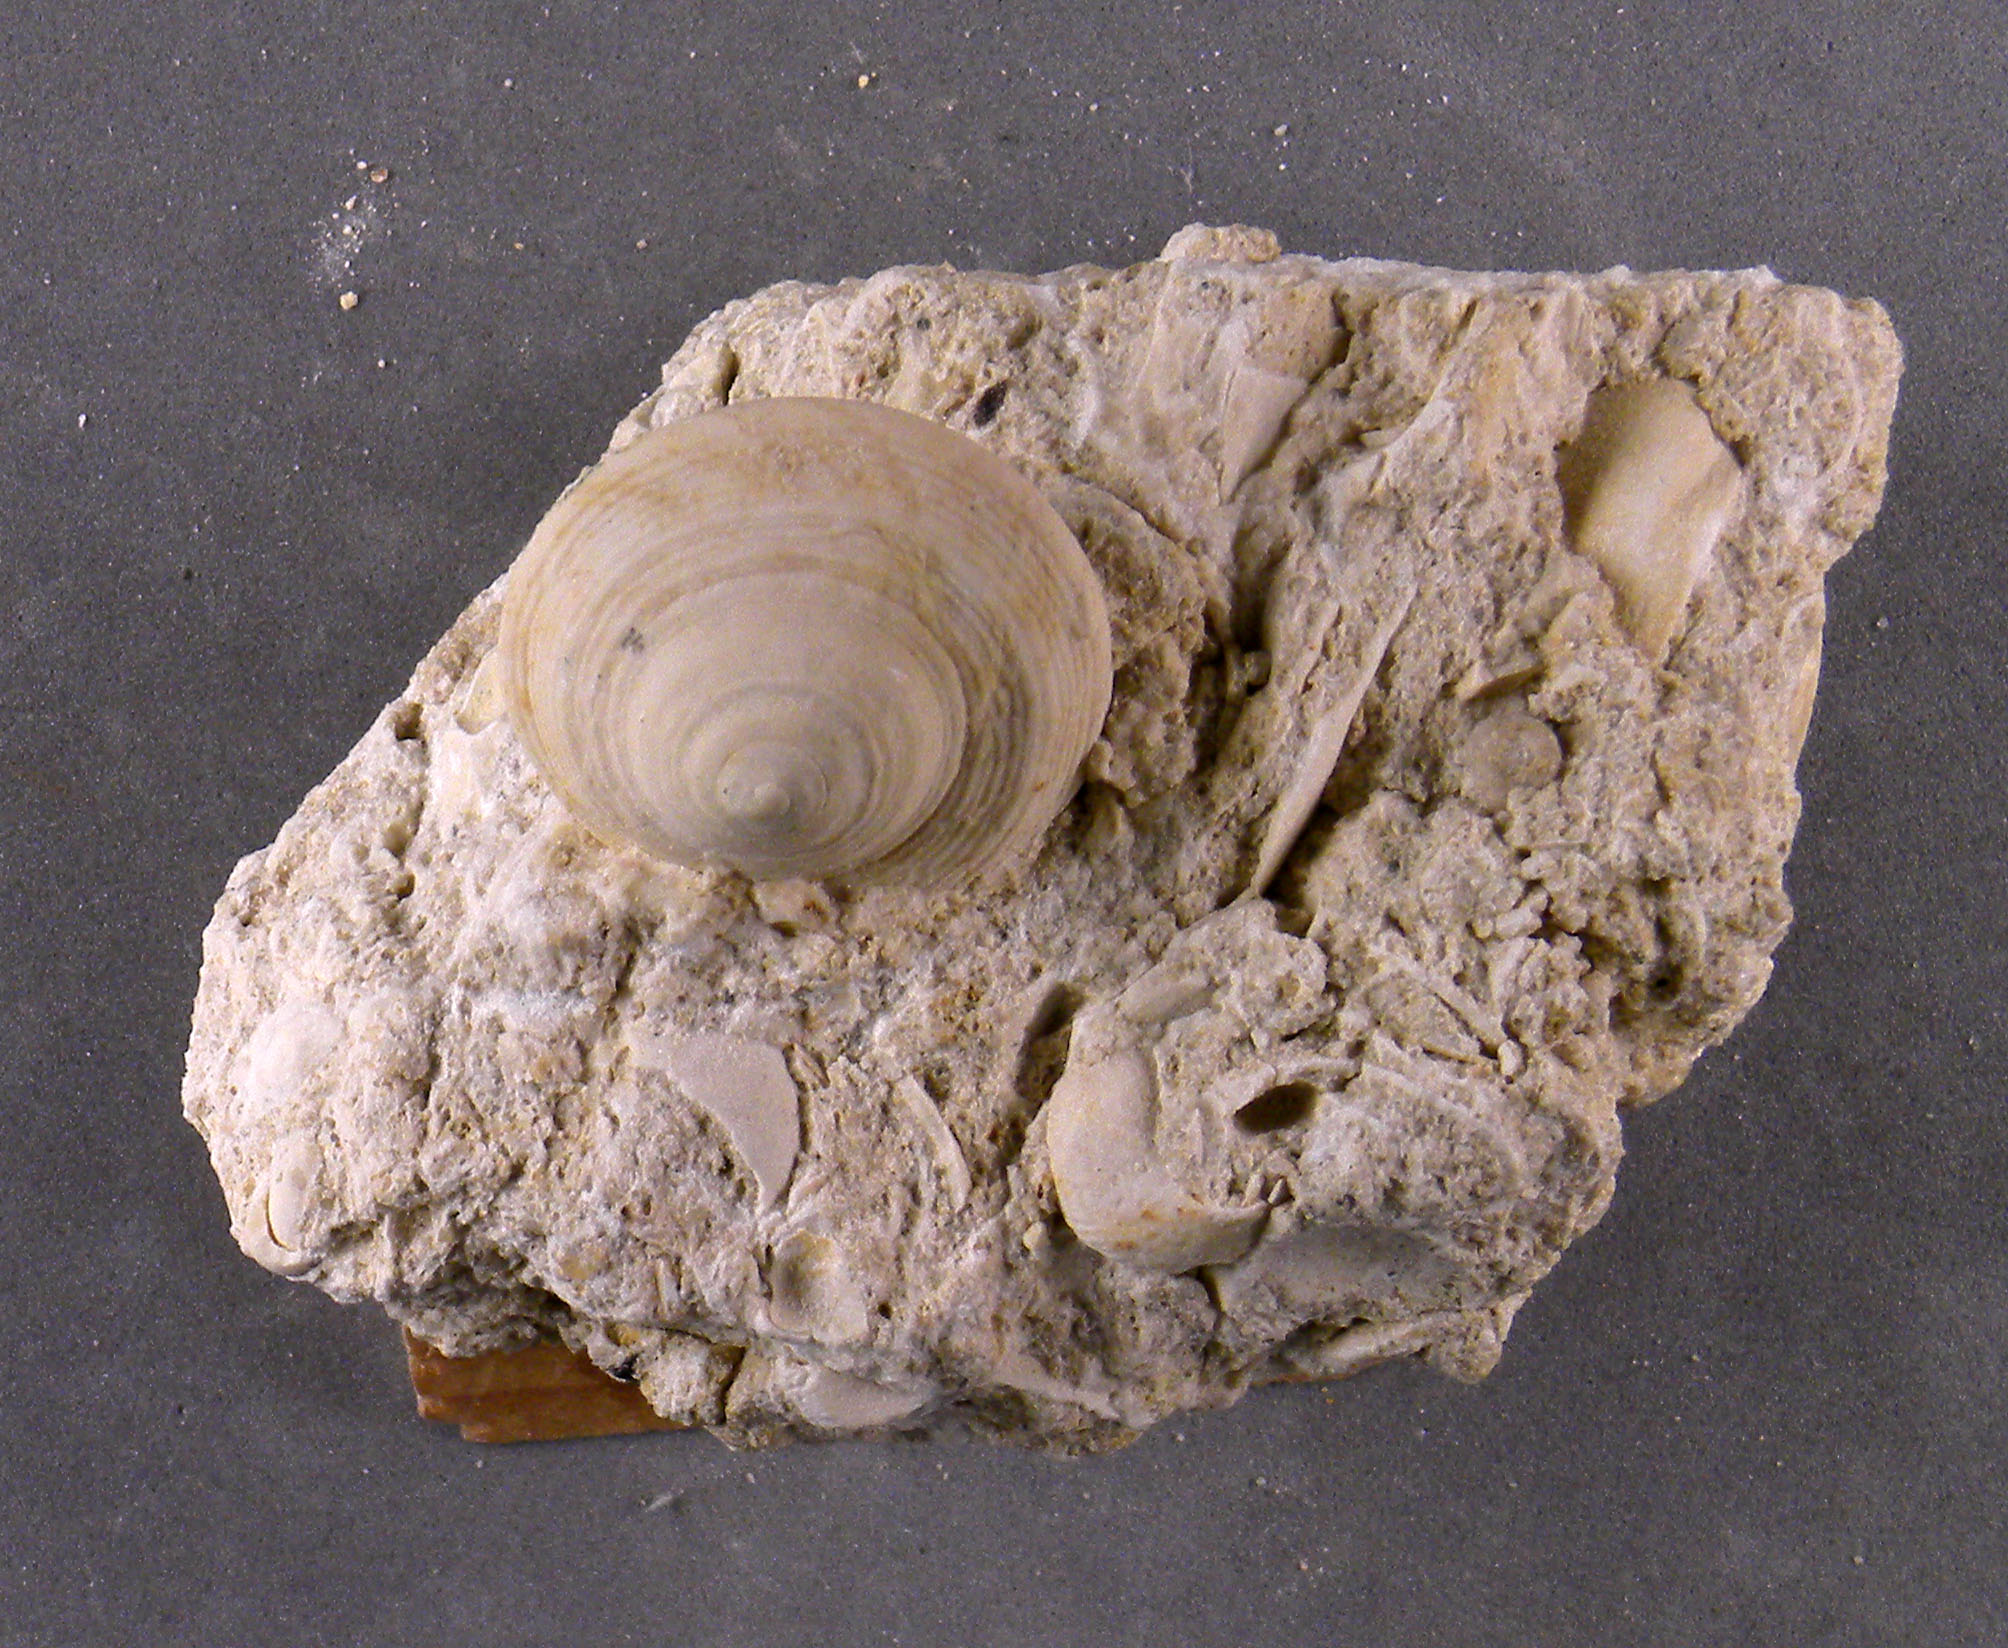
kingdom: Animalia
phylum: Mollusca
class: Gastropoda
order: Pleurotomariida
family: Trochotomidae
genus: Trochotoma
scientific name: Trochotoma
